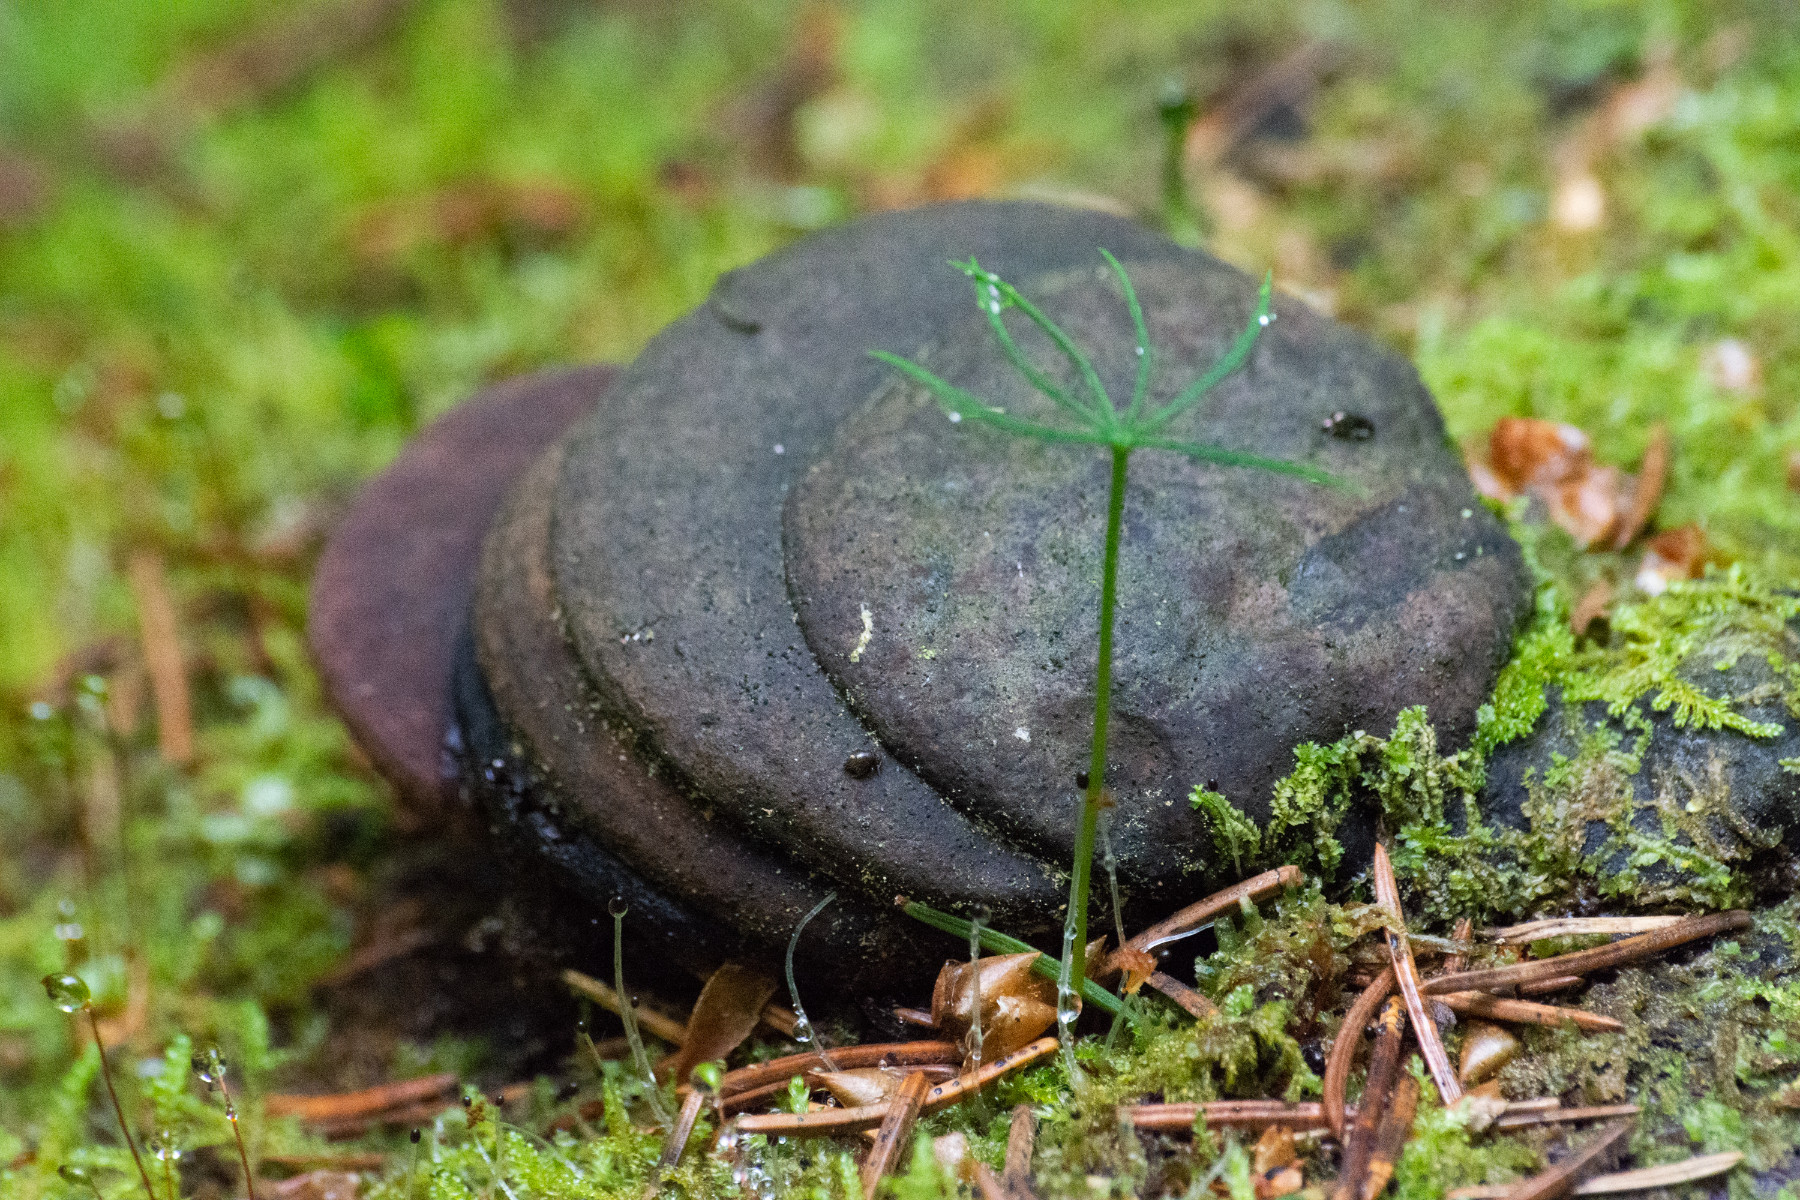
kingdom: Fungi
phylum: Basidiomycota
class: Agaricomycetes
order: Polyporales
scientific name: Polyporales
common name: poresvampordenen
